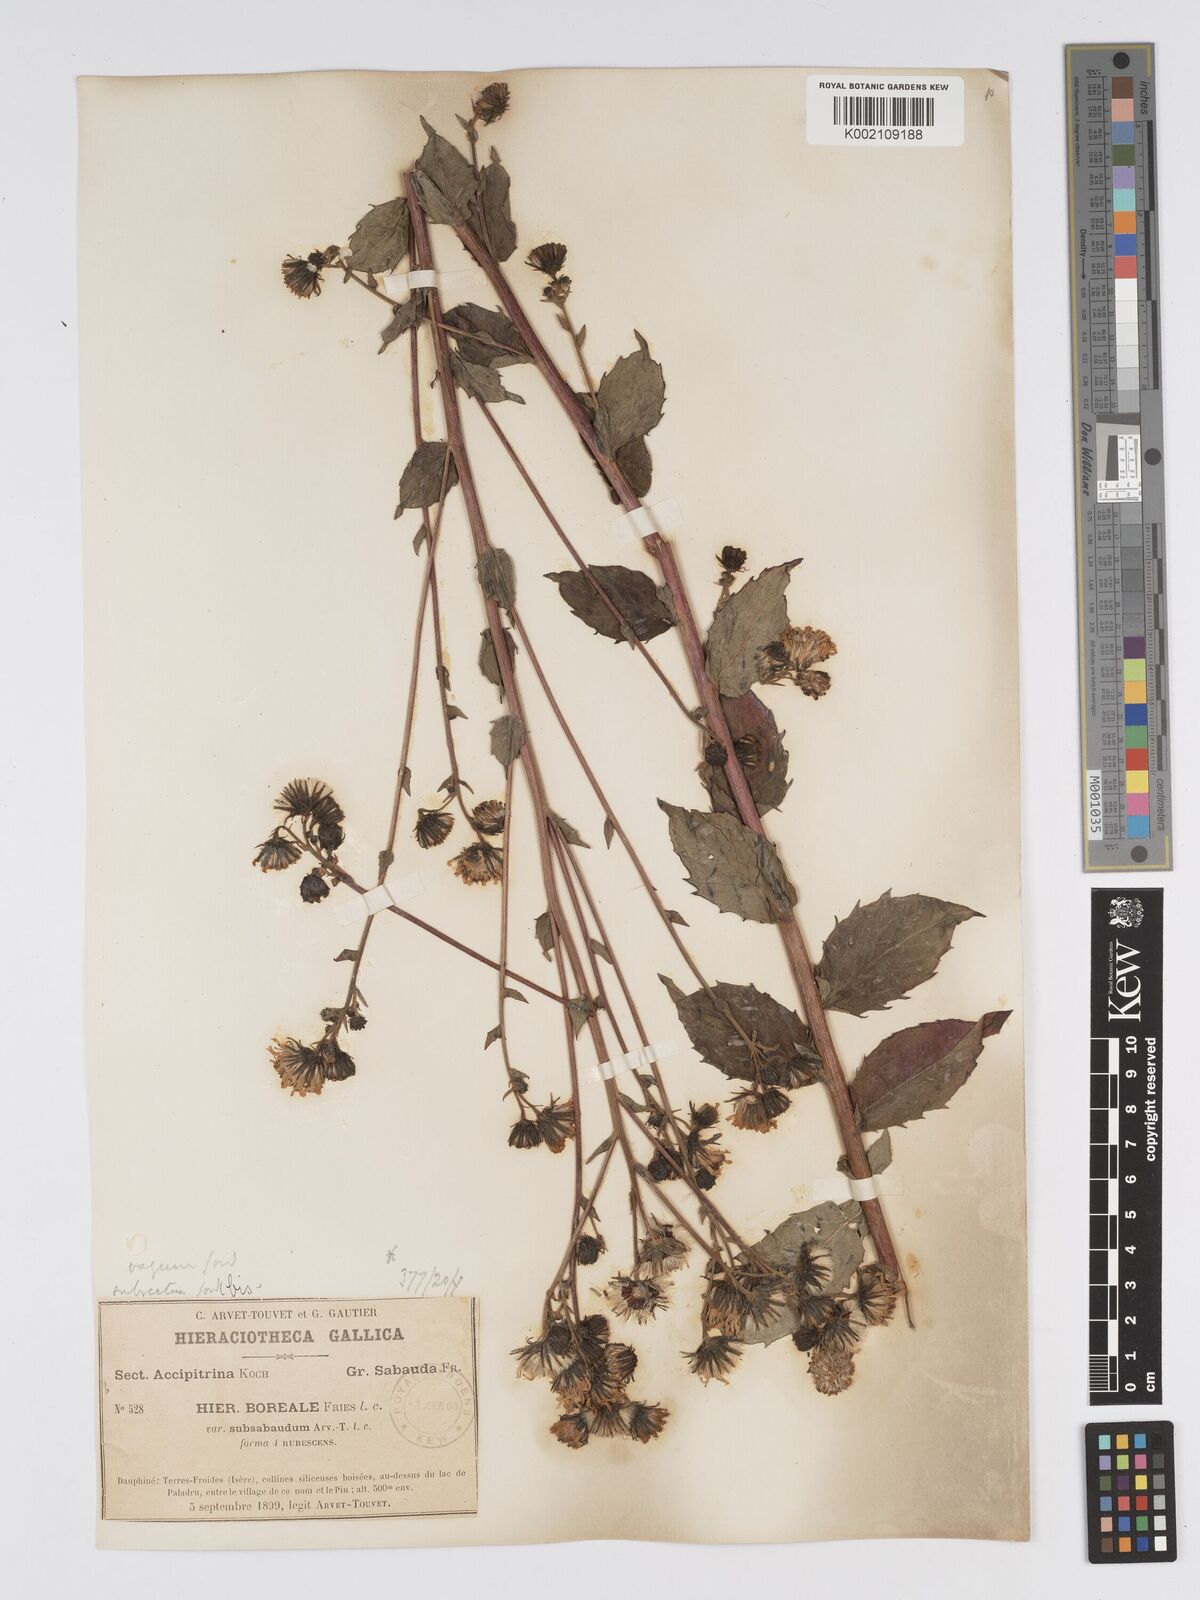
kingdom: Plantae
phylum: Tracheophyta
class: Magnoliopsida
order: Asterales
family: Asteraceae
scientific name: Asteraceae
